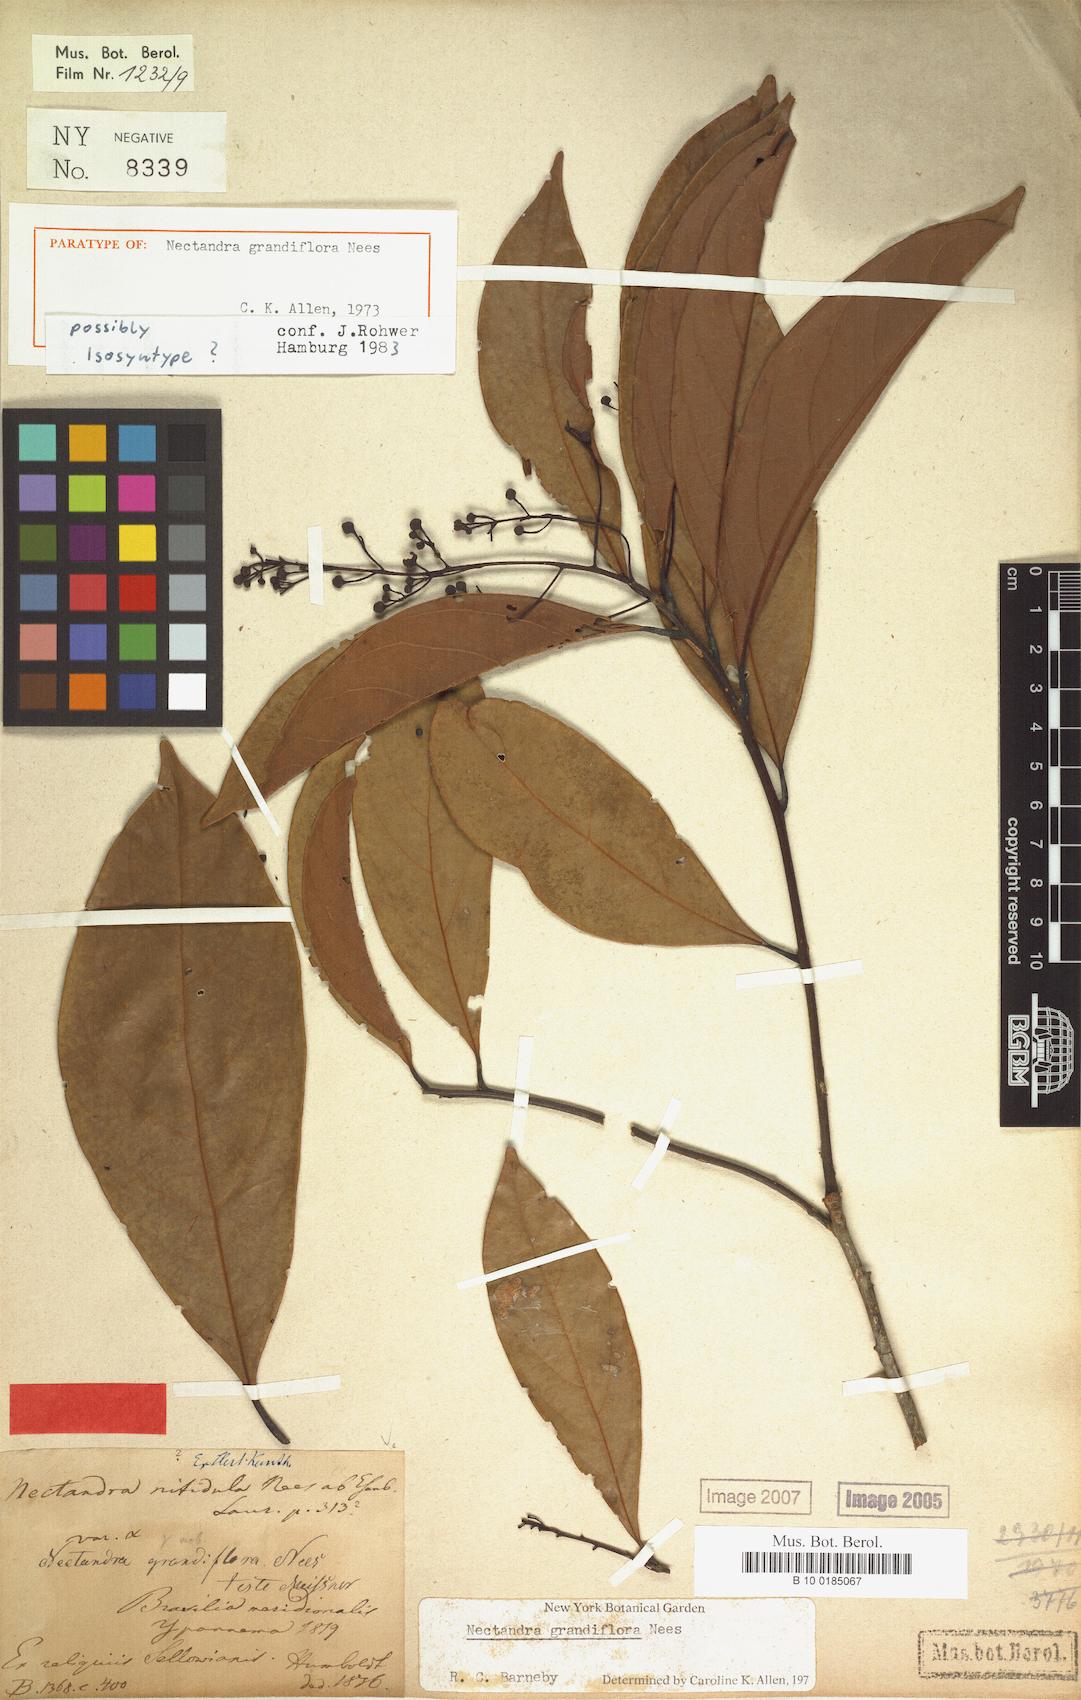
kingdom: Plantae
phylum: Tracheophyta
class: Magnoliopsida
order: Laurales
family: Lauraceae
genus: Nectandra
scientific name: Nectandra grandiflora
